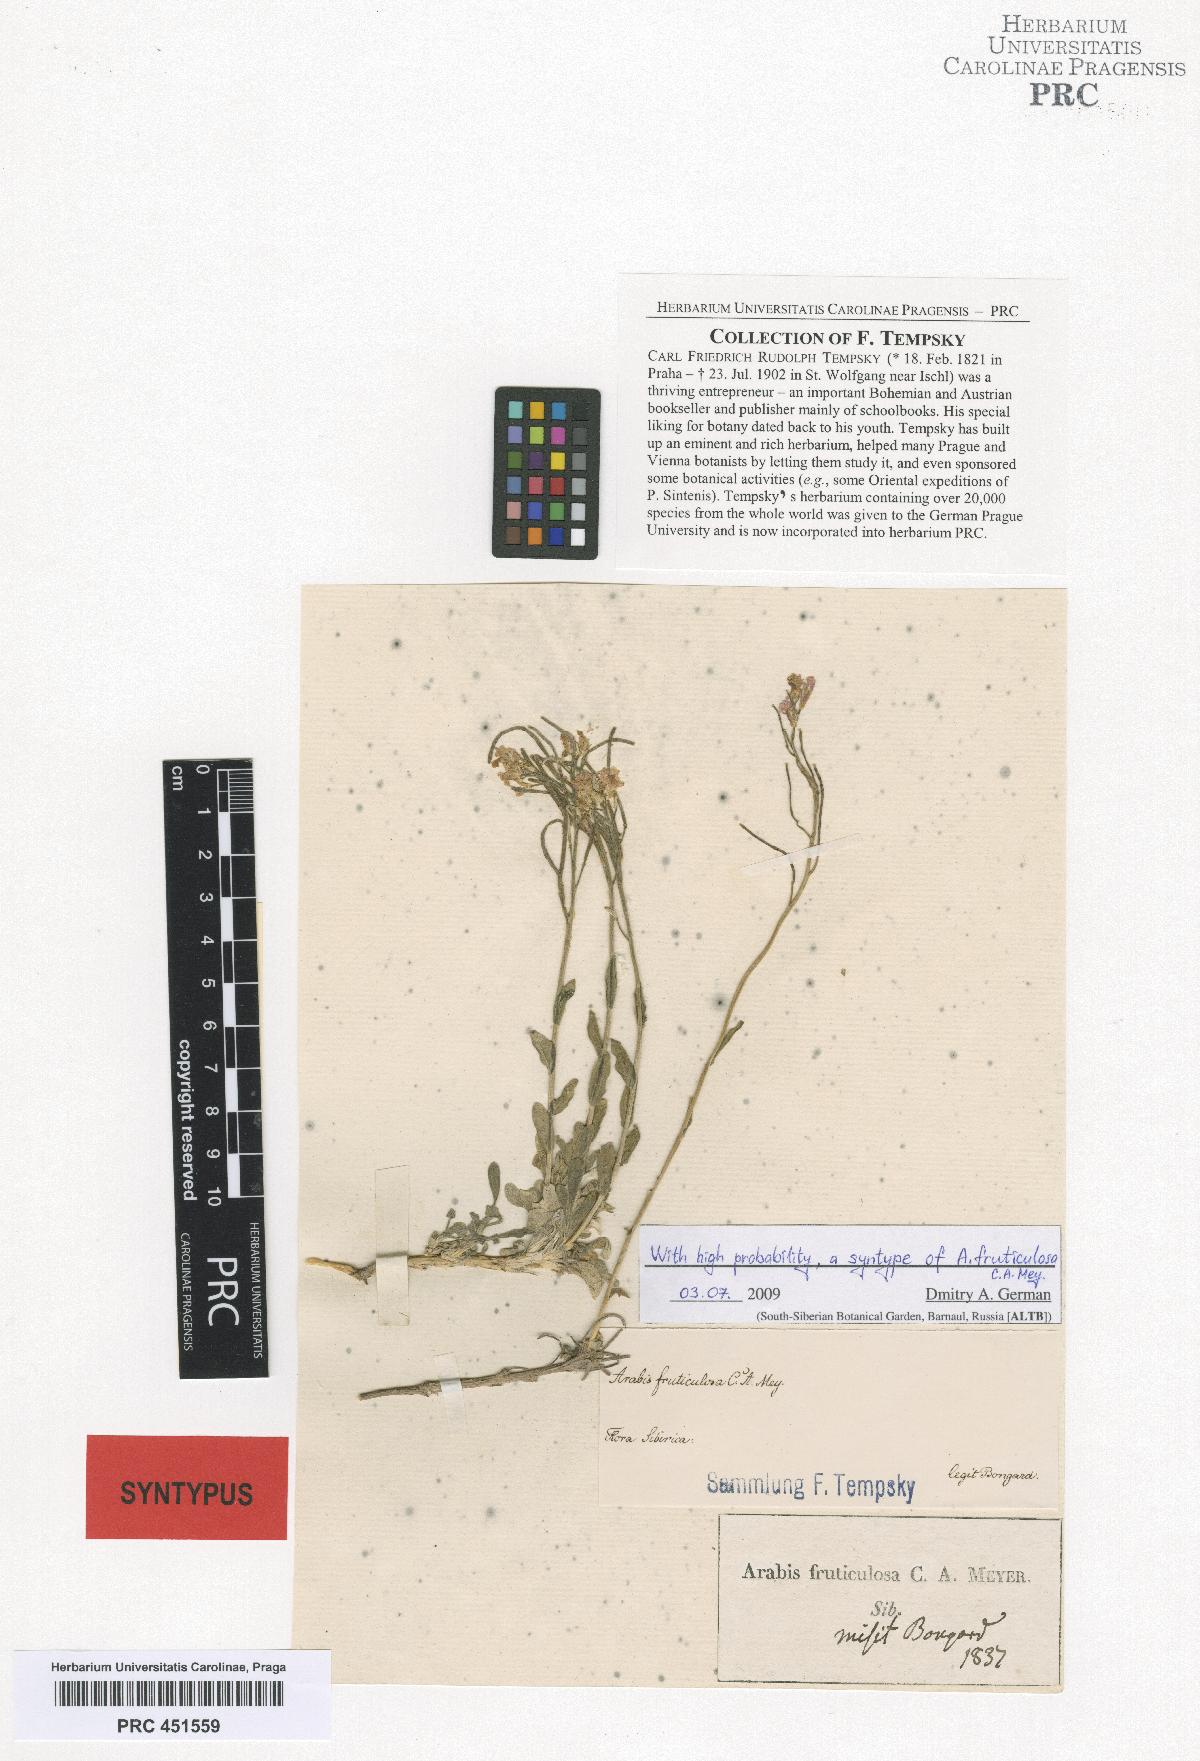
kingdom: Plantae
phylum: Tracheophyta
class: Magnoliopsida
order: Brassicales
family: Brassicaceae
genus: Dendroarabis
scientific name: Dendroarabis fruticulosa
